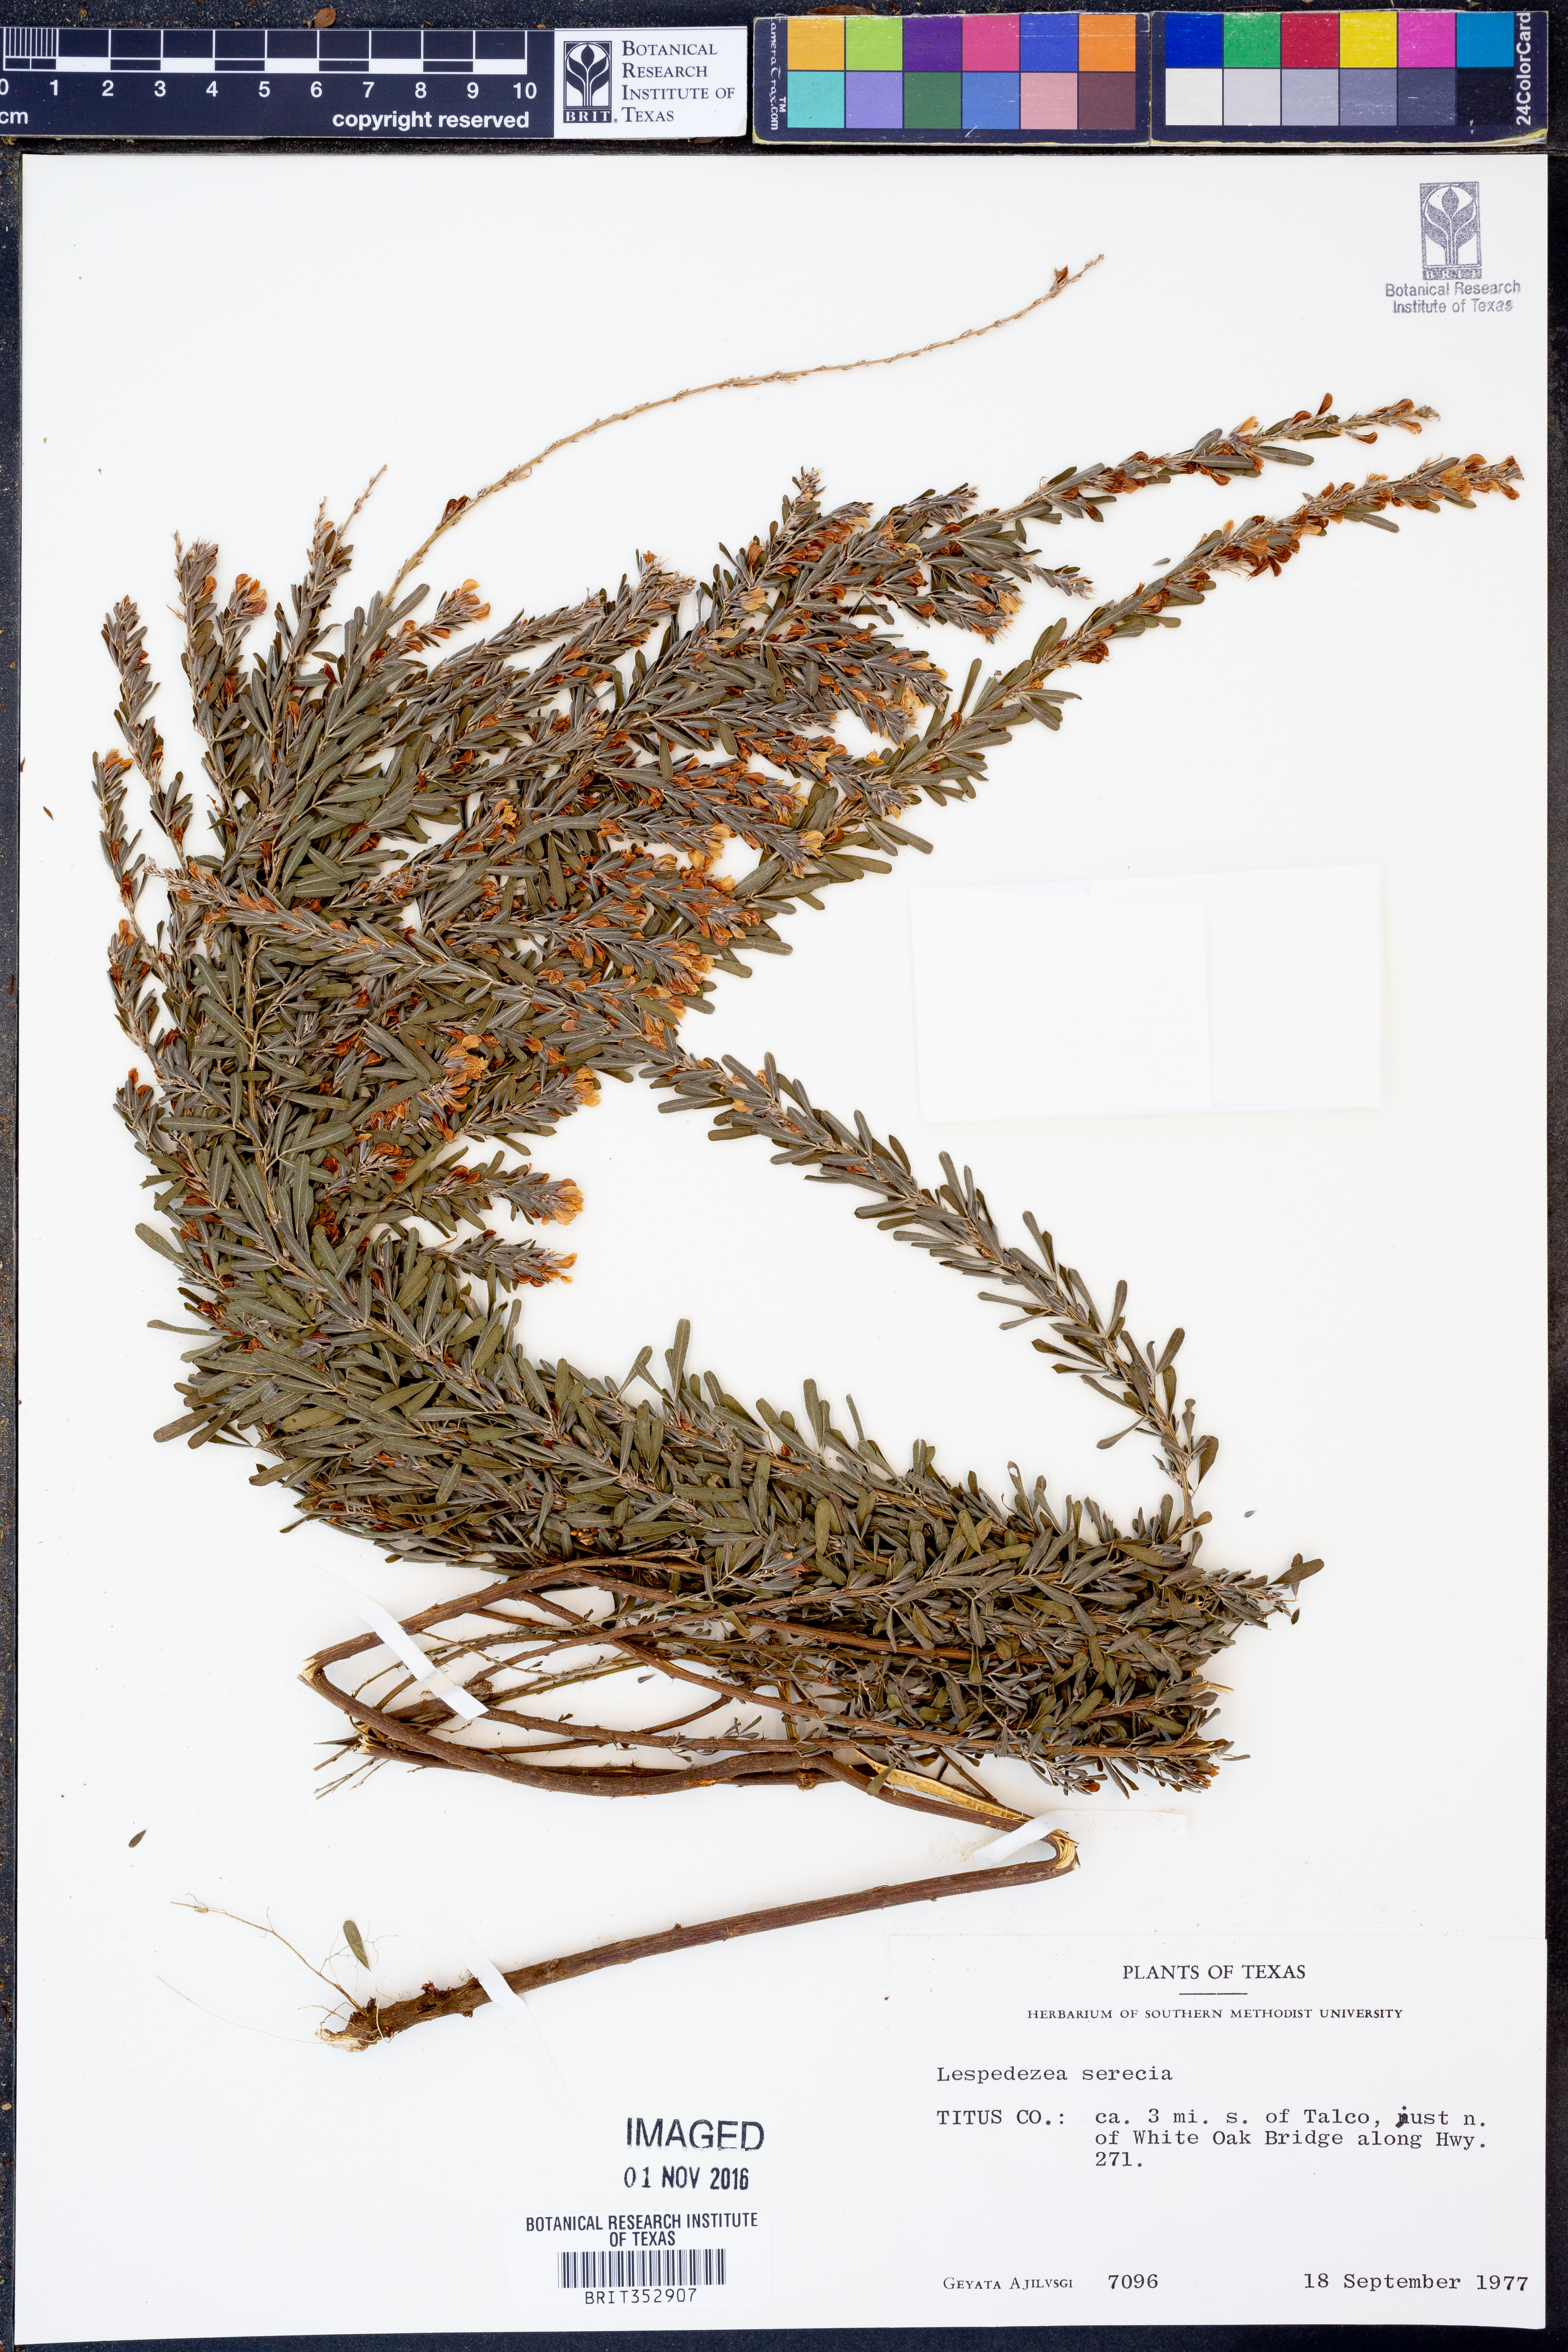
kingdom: Plantae
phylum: Tracheophyta
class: Magnoliopsida
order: Fabales
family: Fabaceae
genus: Lespedeza
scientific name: Lespedeza cuneata
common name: Chinese bush-clover
